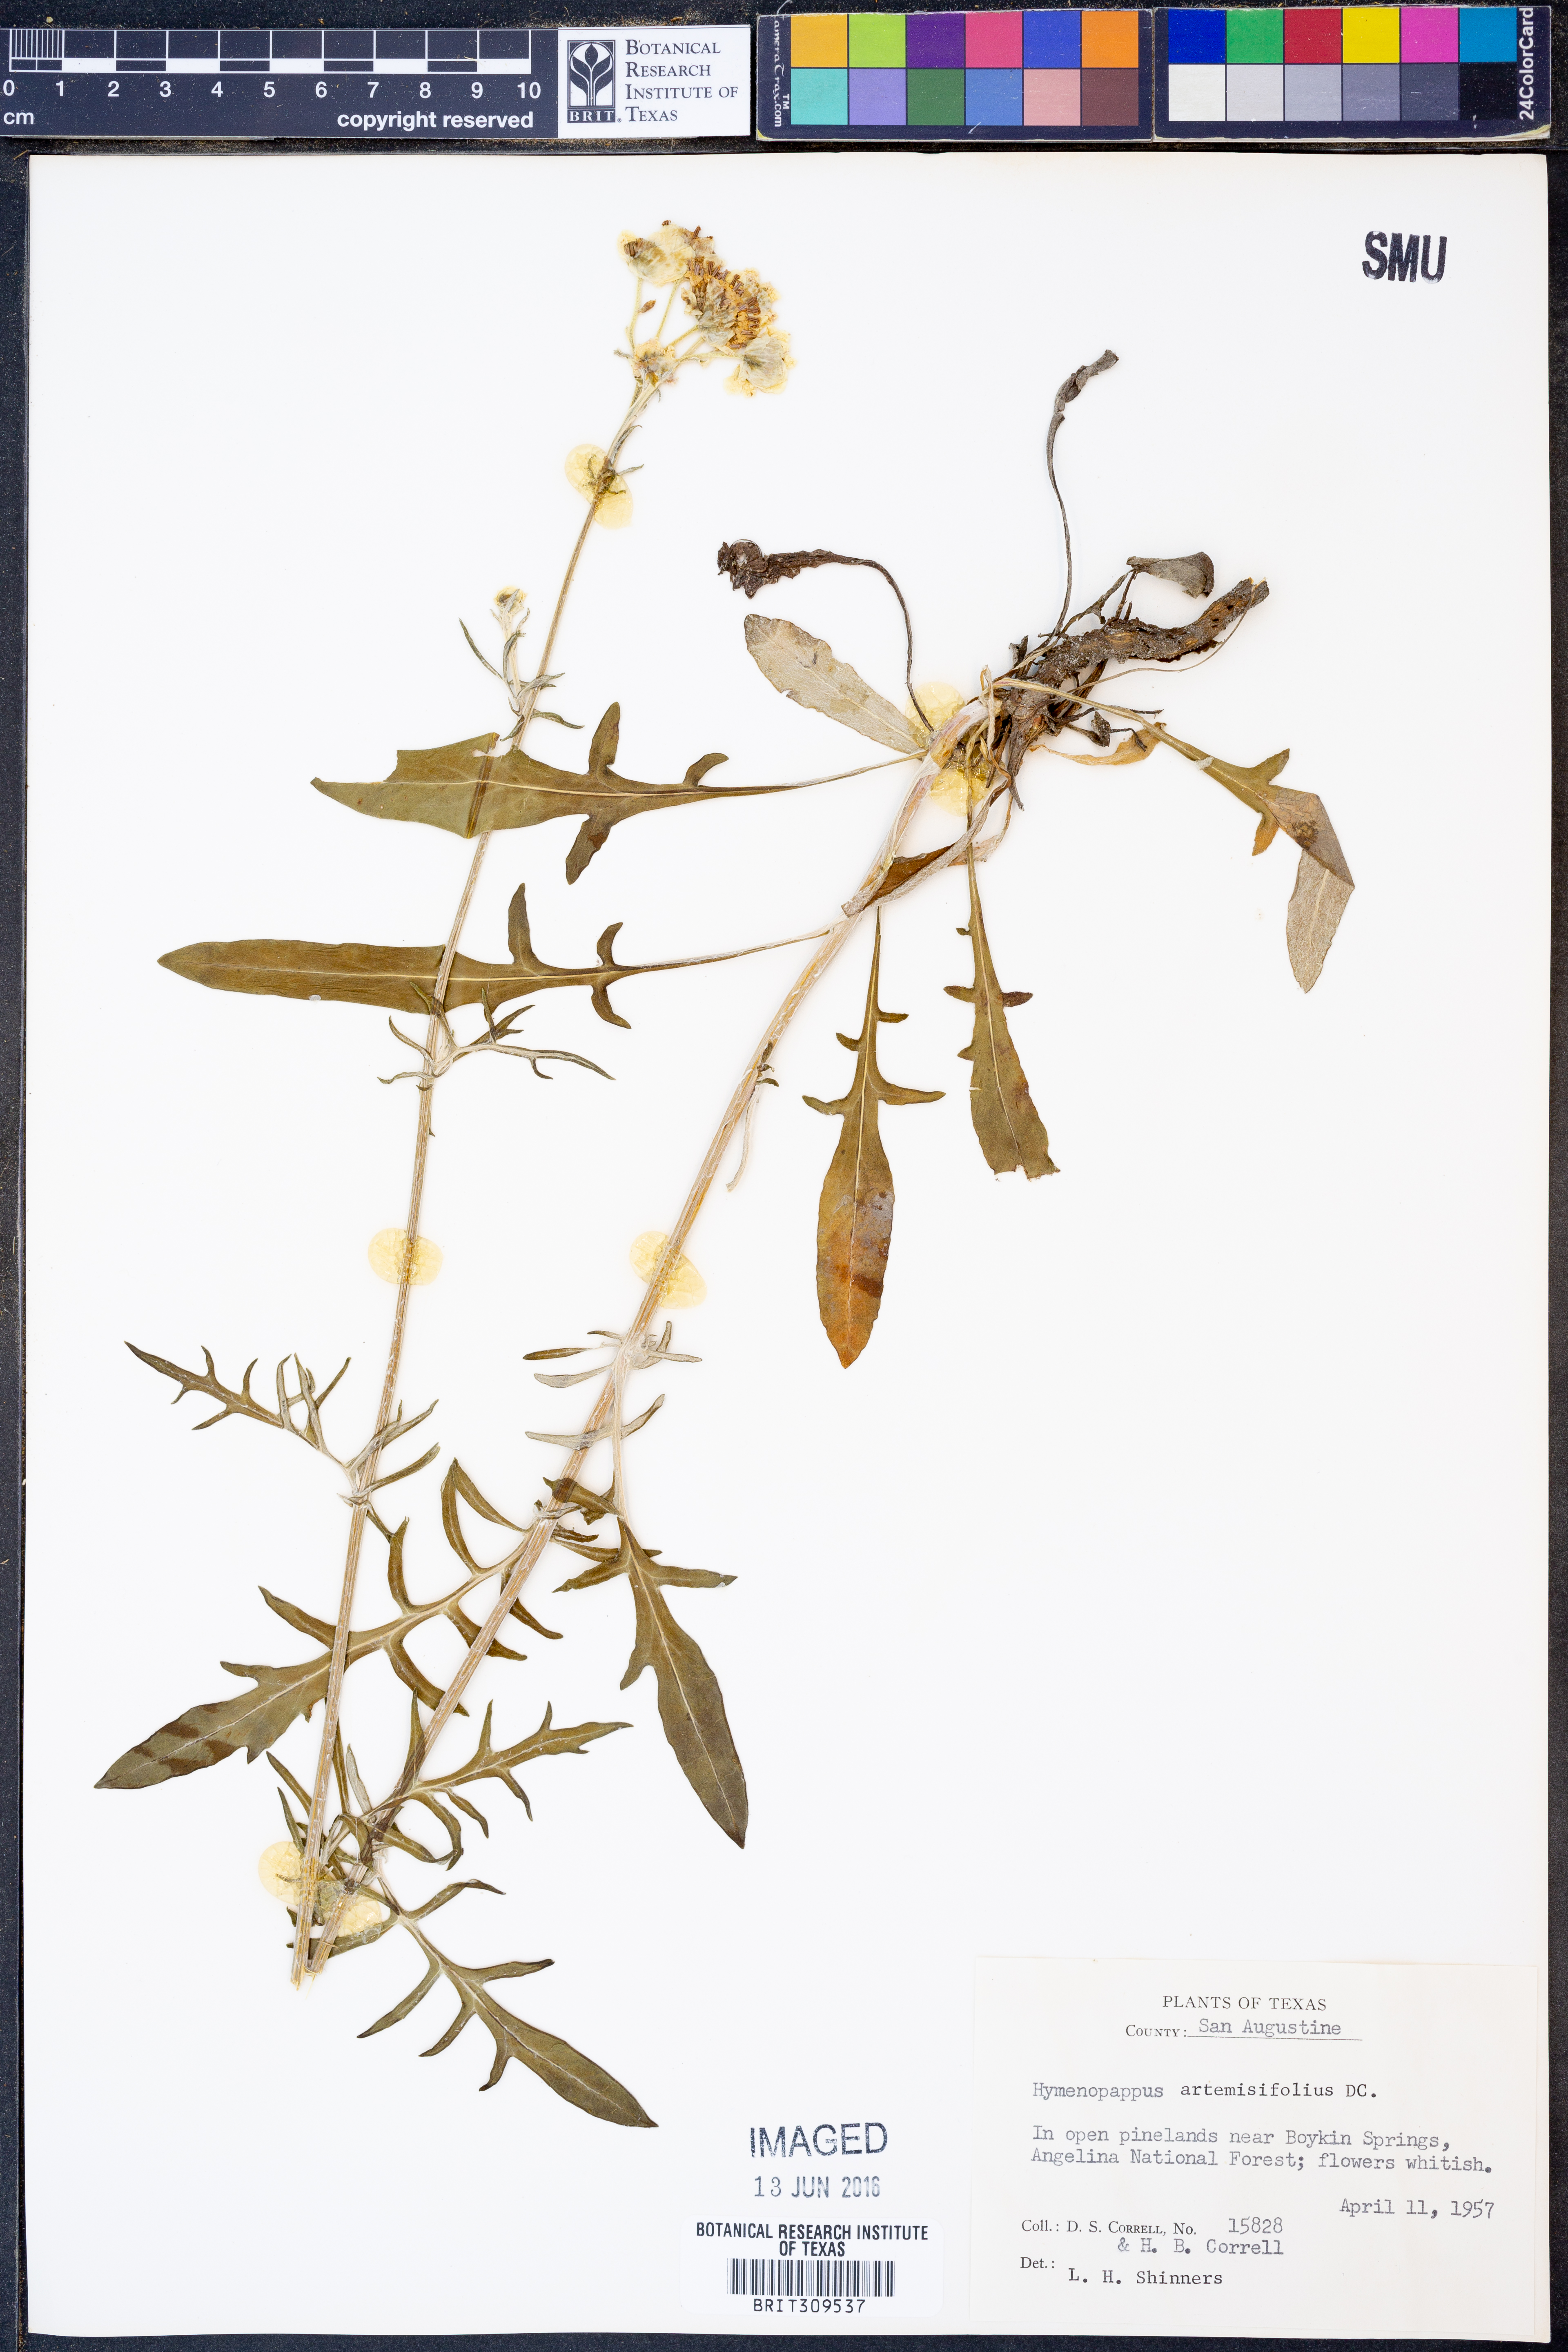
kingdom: Plantae
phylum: Tracheophyta
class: Magnoliopsida
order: Asterales
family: Asteraceae
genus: Hymenopappus
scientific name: Hymenopappus artemisiifolius
